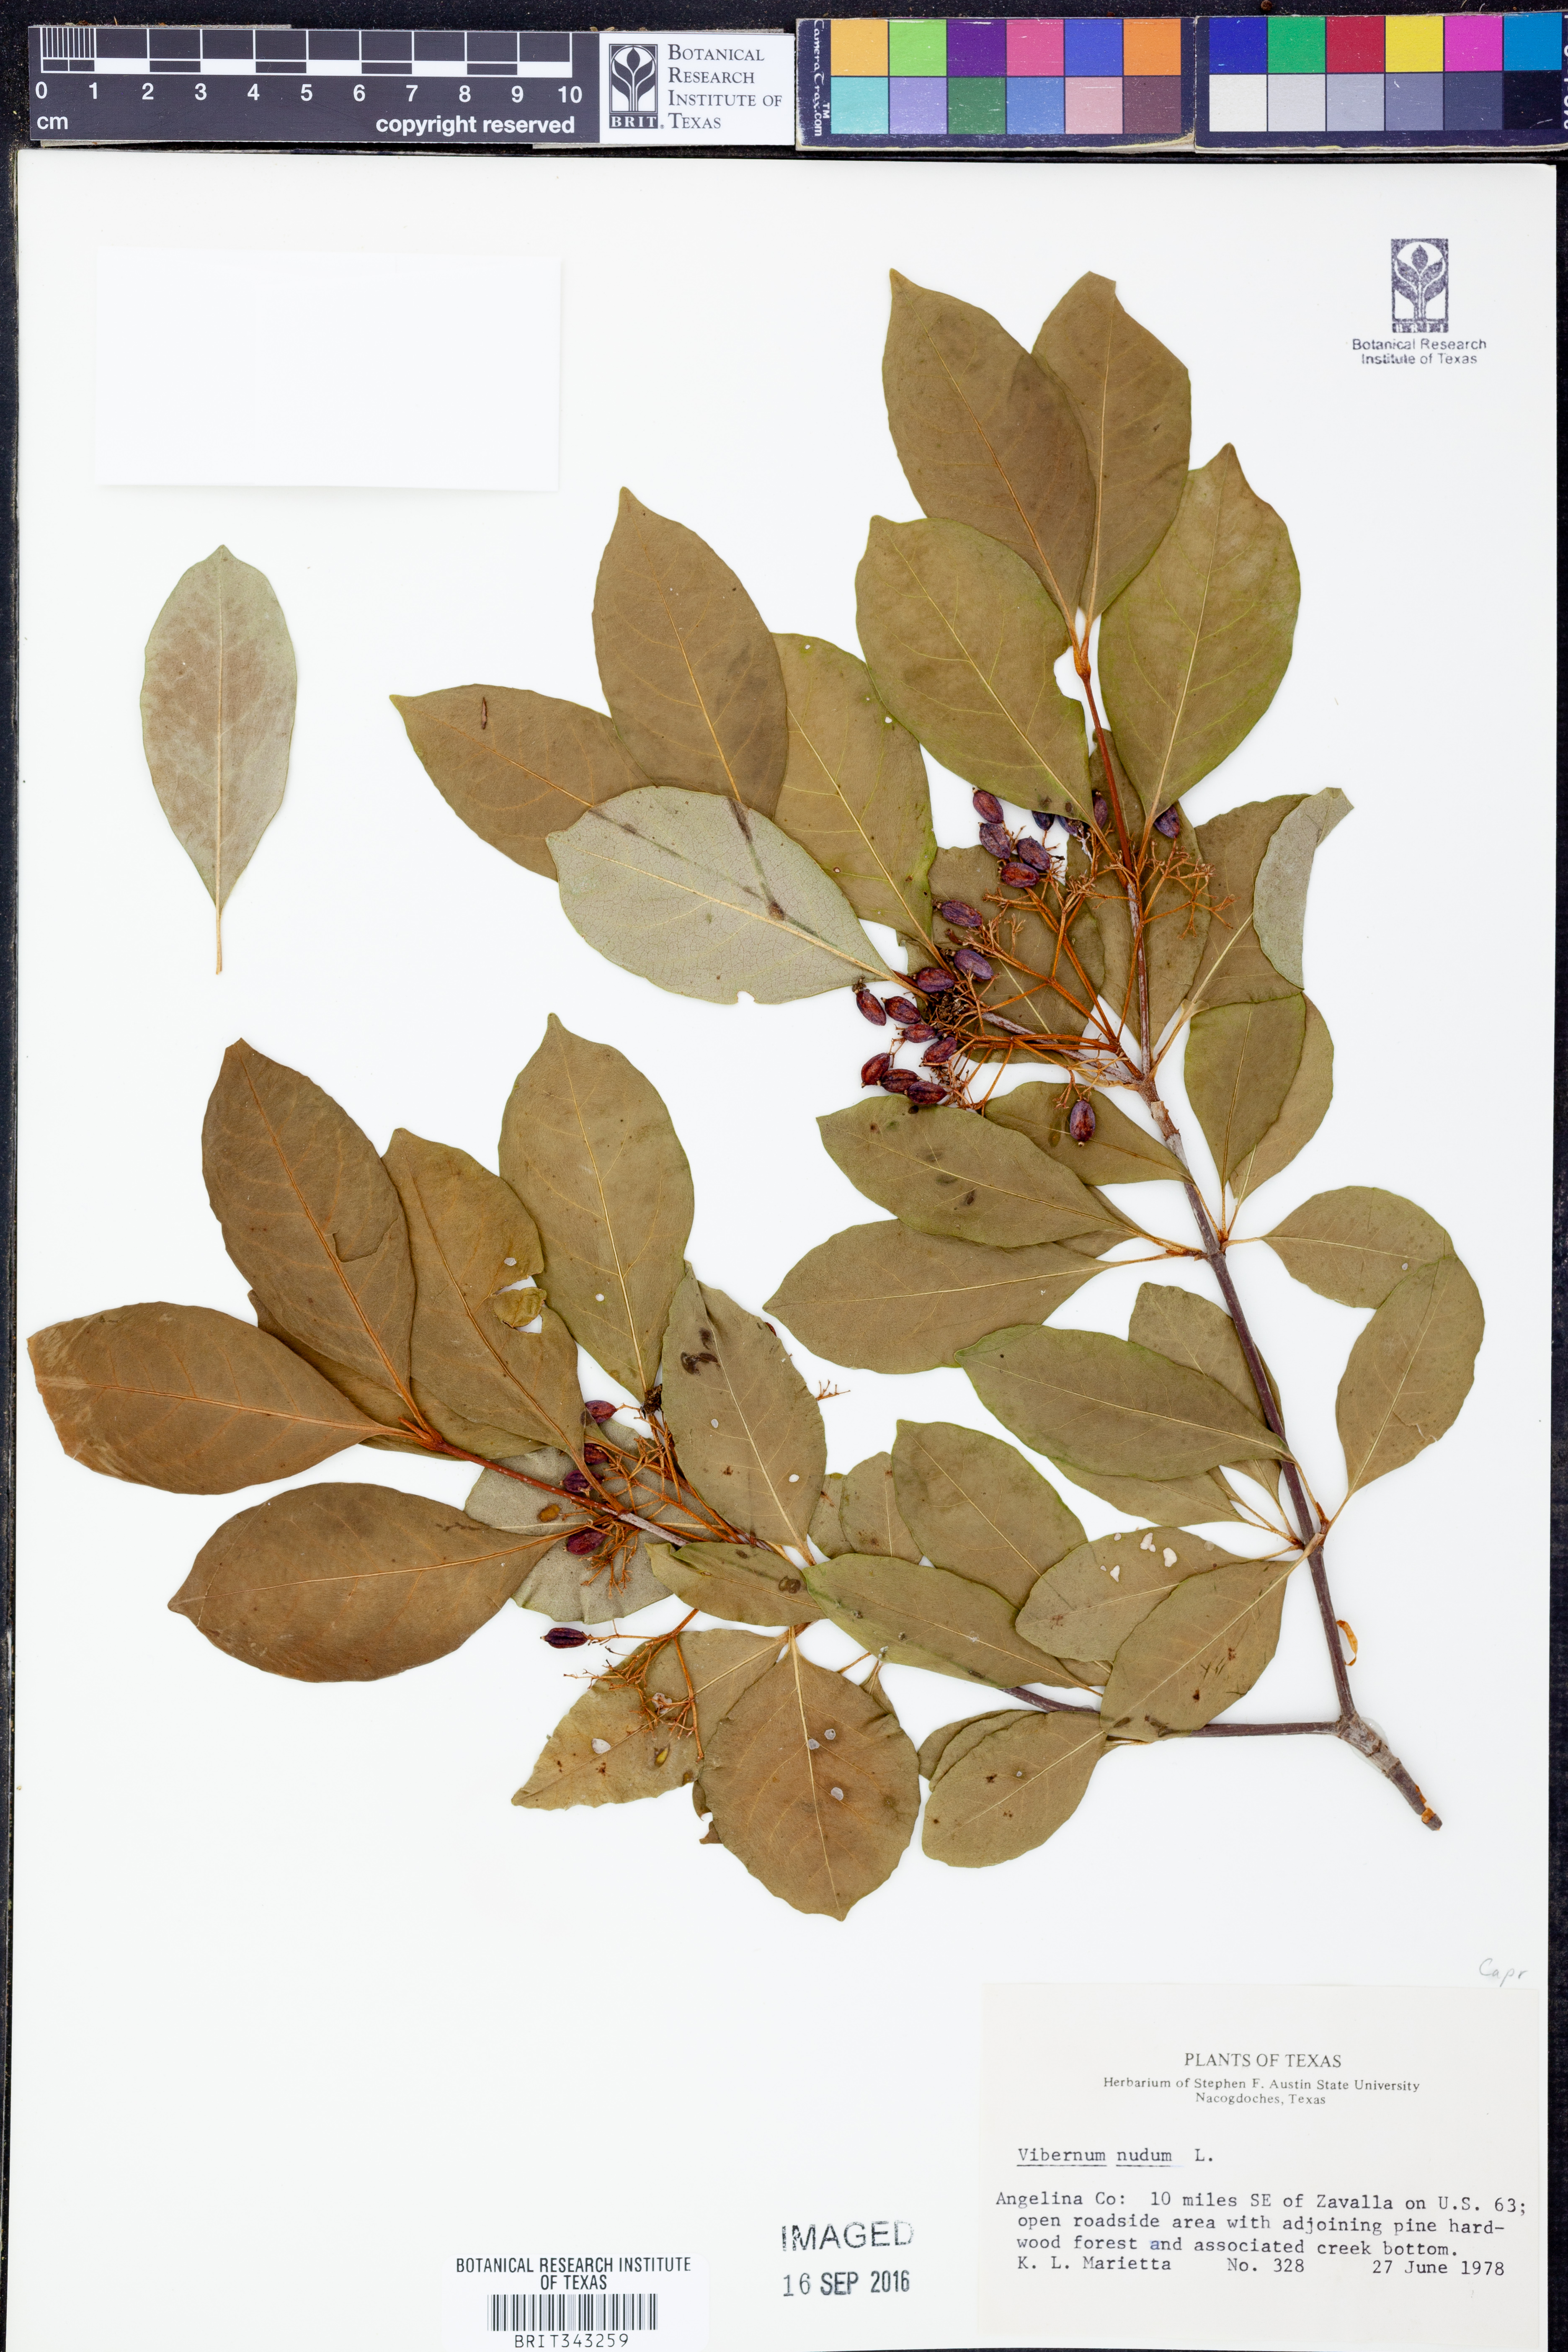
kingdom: Plantae
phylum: Tracheophyta
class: Magnoliopsida
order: Dipsacales
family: Viburnaceae
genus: Viburnum
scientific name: Viburnum nudum
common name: Possum haw
